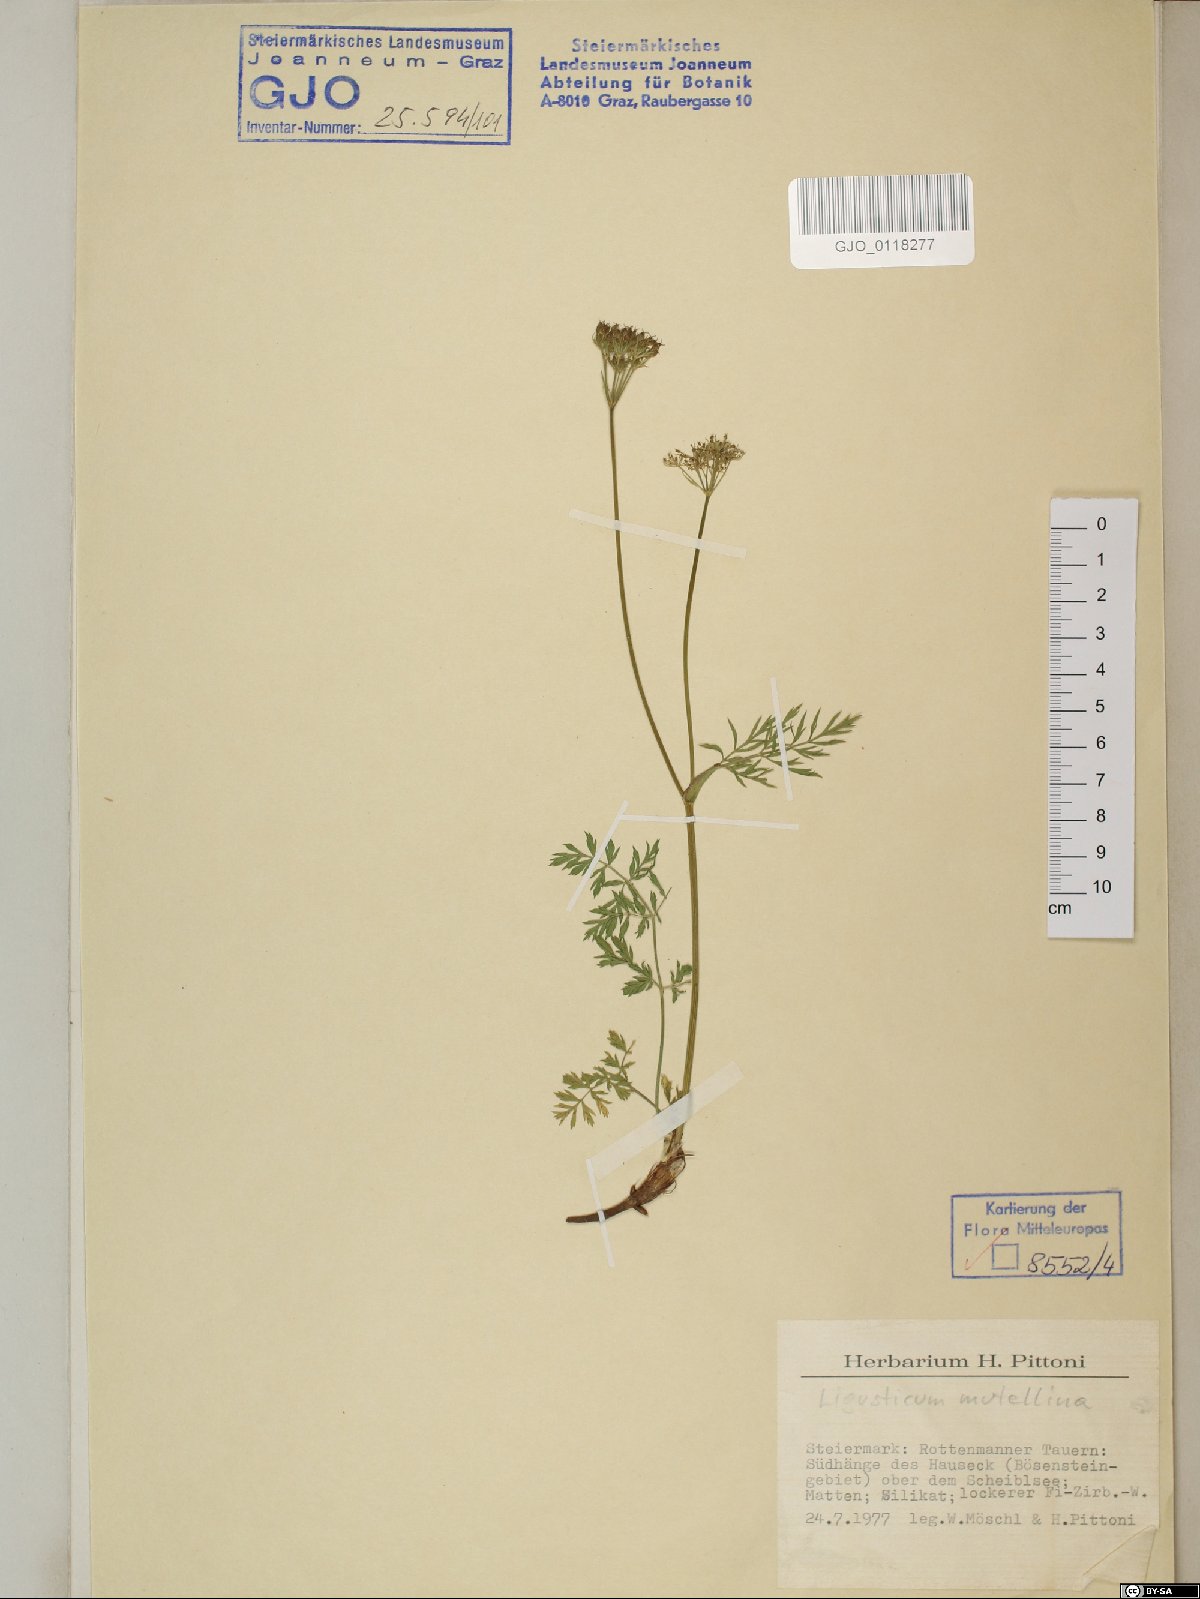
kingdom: Plantae
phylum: Tracheophyta
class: Magnoliopsida
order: Apiales
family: Apiaceae
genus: Mutellina
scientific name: Mutellina adonidifolia
